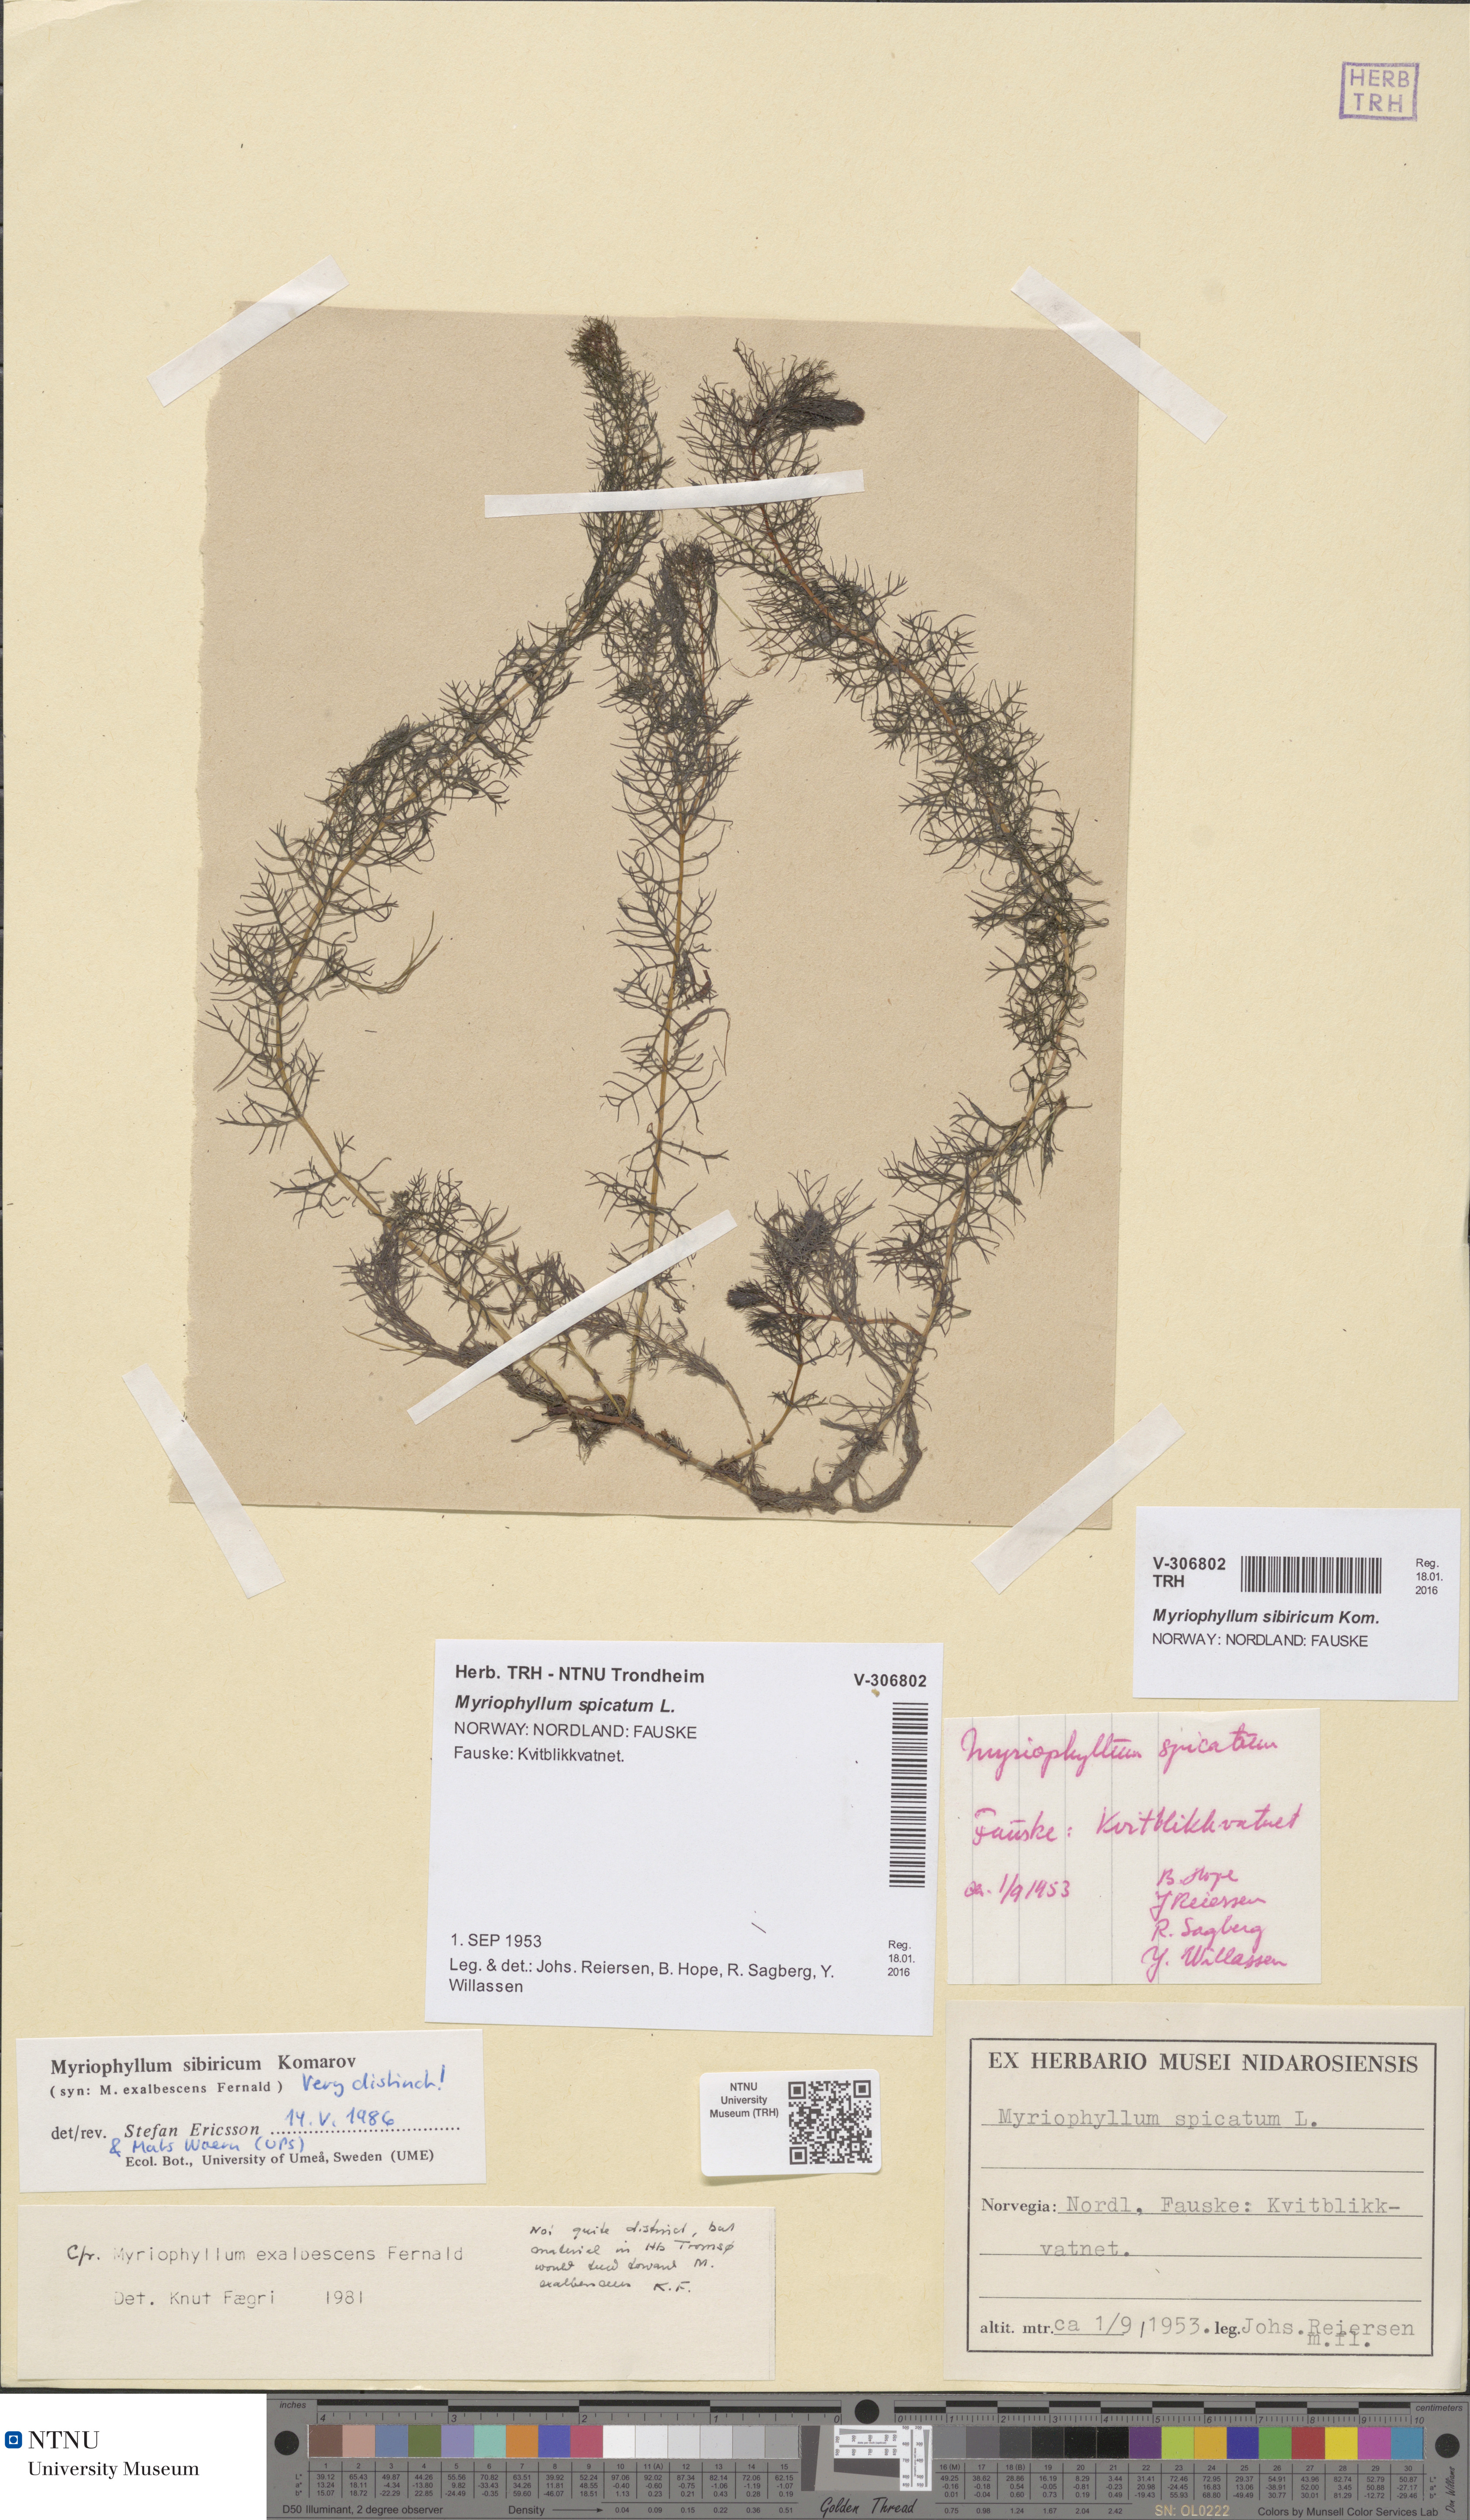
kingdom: Plantae
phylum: Tracheophyta
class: Magnoliopsida
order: Saxifragales
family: Haloragaceae
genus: Myriophyllum
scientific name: Myriophyllum sibiricum
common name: Siberian water-milfoil
